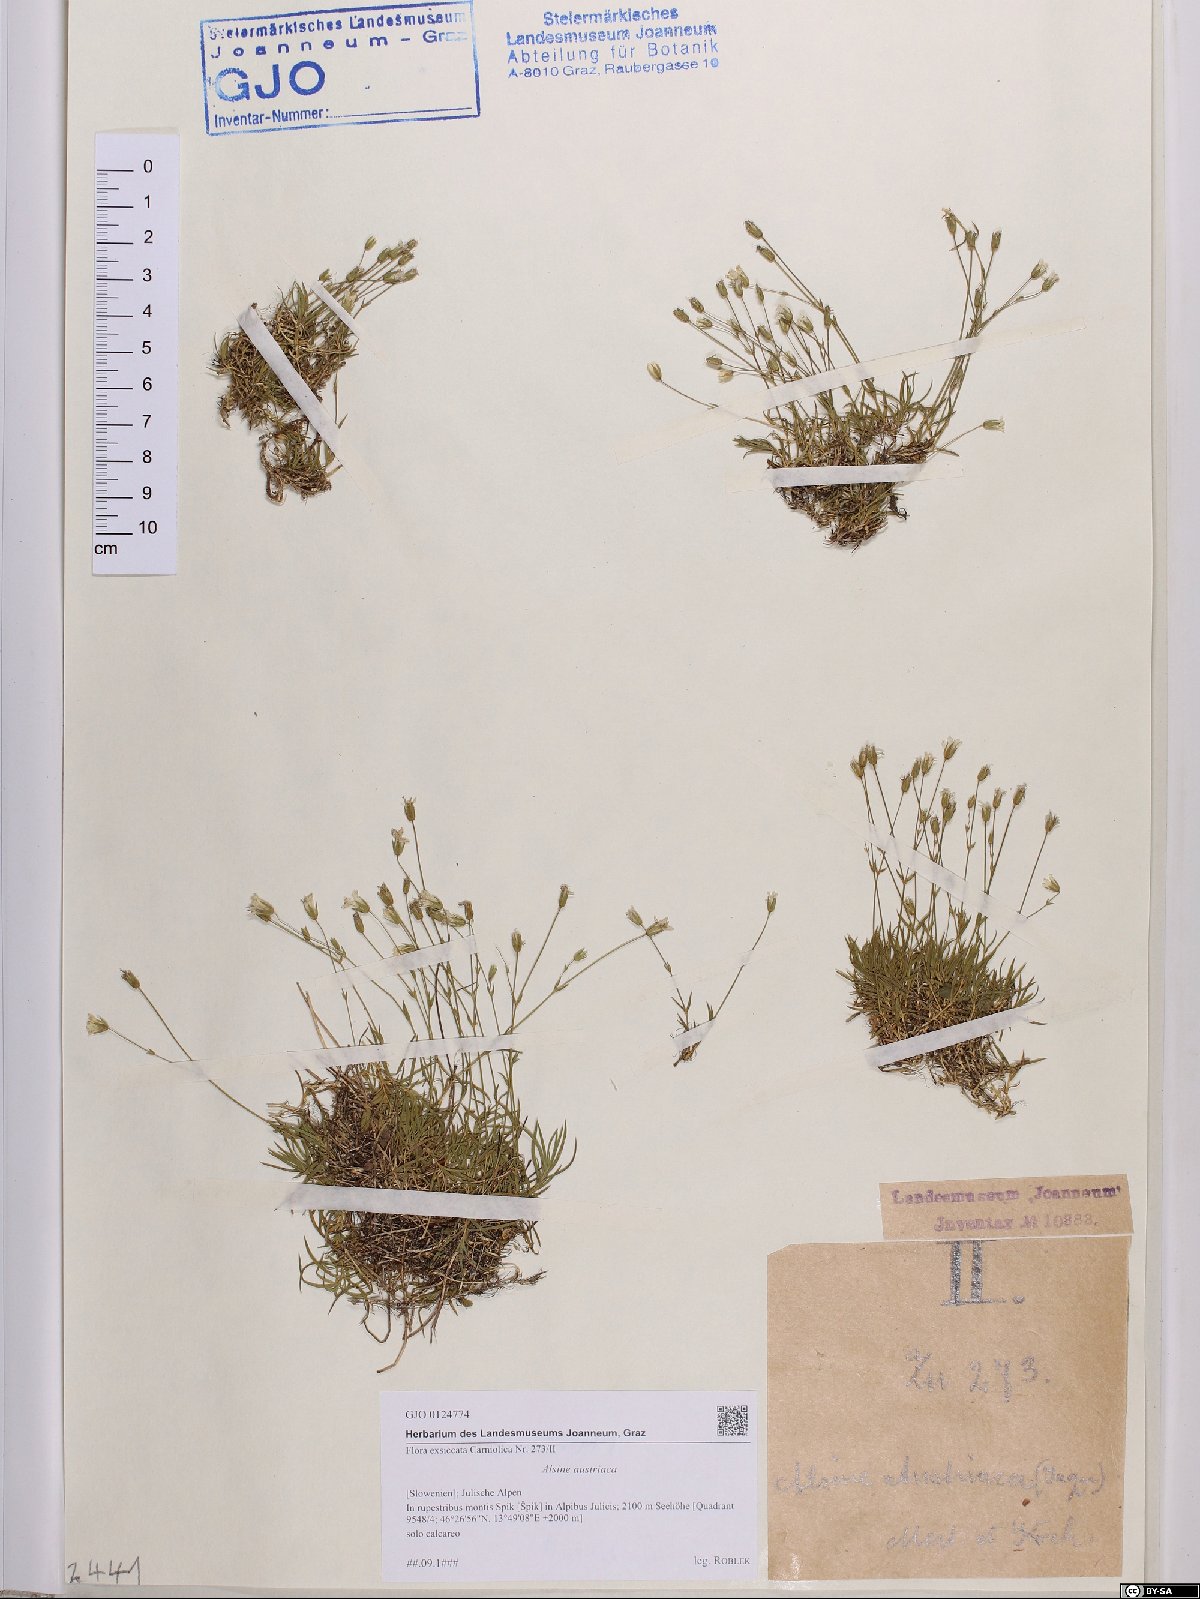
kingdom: Plantae
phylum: Tracheophyta
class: Magnoliopsida
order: Caryophyllales
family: Caryophyllaceae
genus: Sabulina
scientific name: Sabulina austriaca
